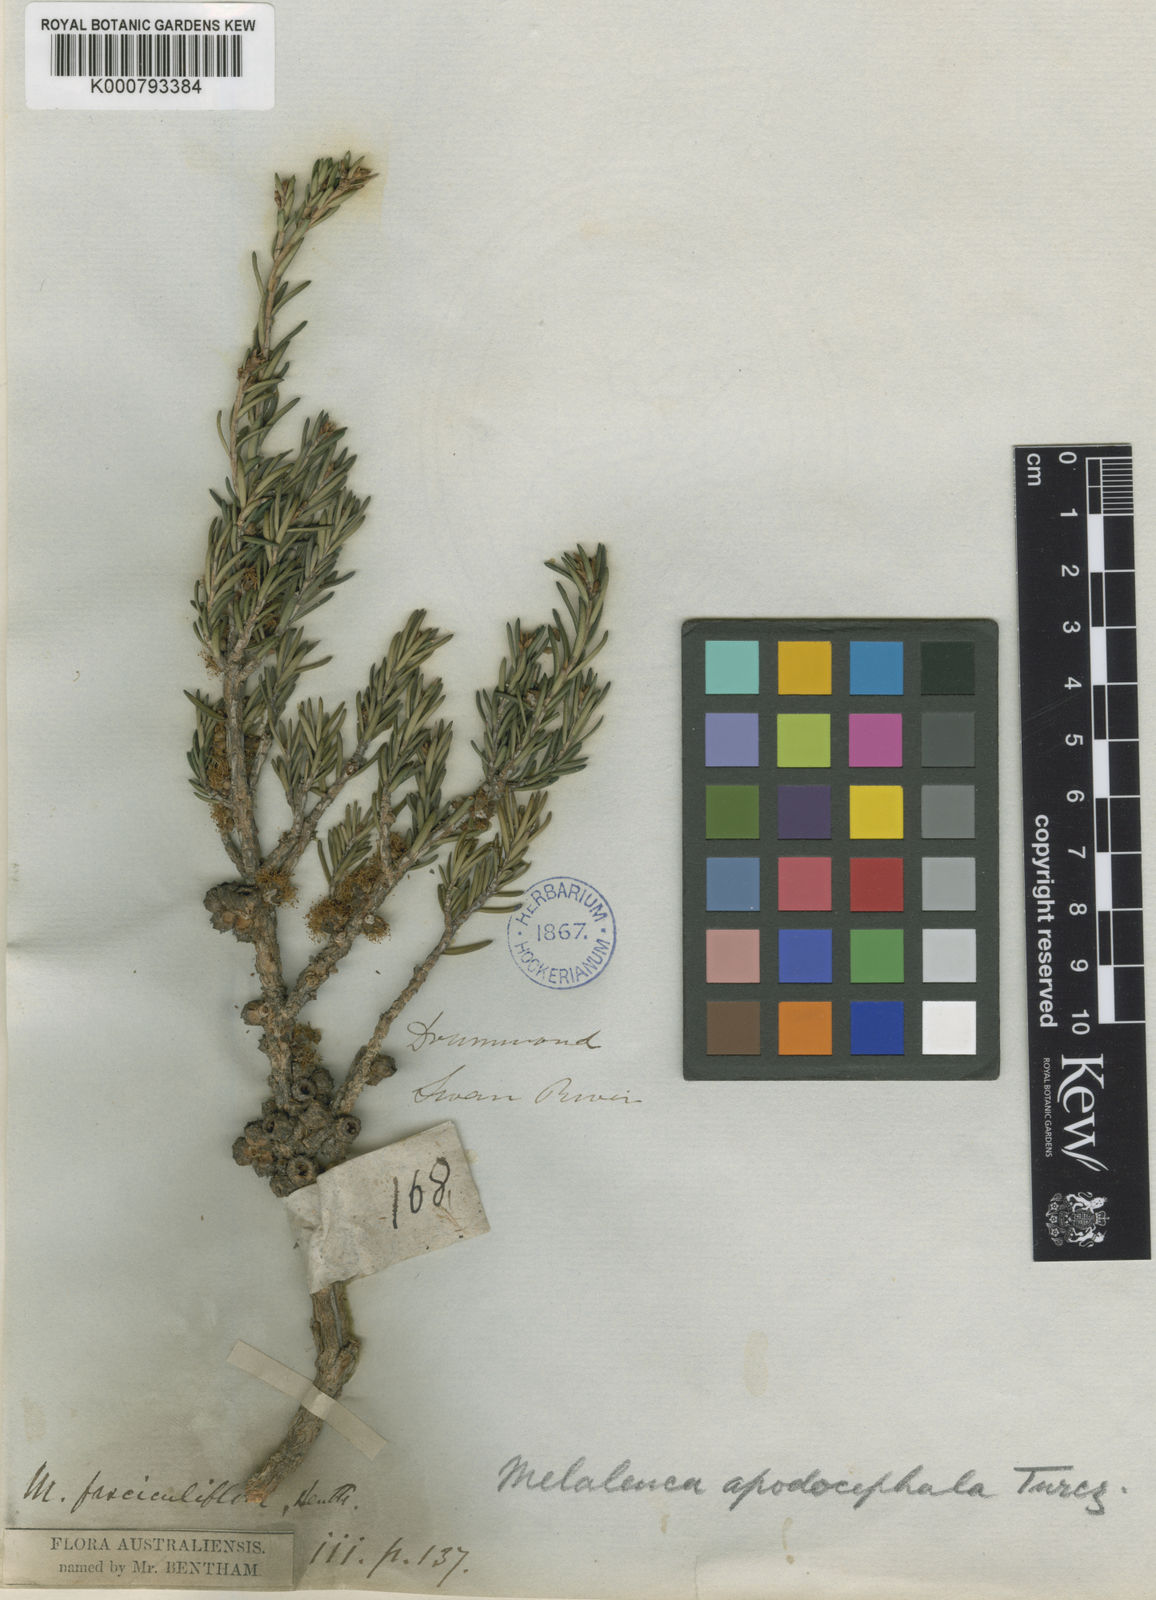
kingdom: Plantae
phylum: Tracheophyta
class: Magnoliopsida
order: Myrtales
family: Myrtaceae
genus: Melaleuca
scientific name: Melaleuca apodocephala
